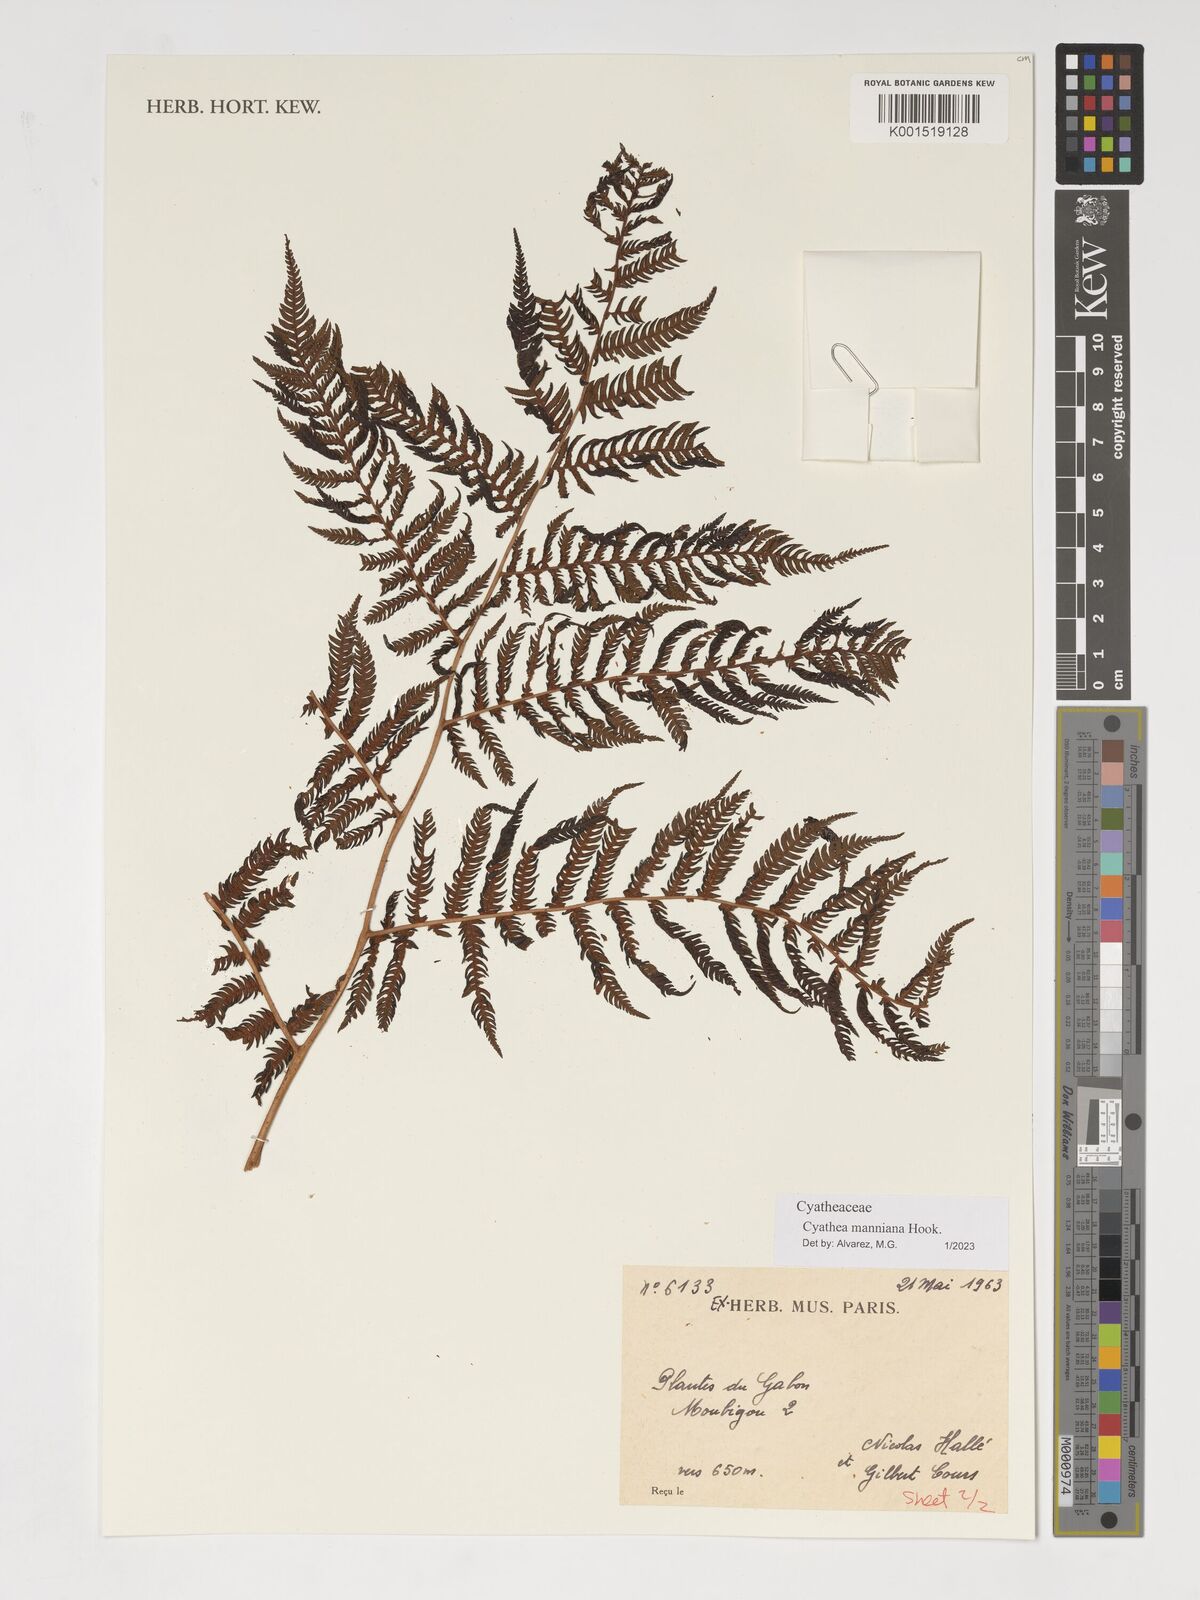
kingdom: Plantae
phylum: Tracheophyta
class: Polypodiopsida
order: Cyatheales
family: Cyatheaceae
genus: Alsophila
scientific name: Alsophila manniana
